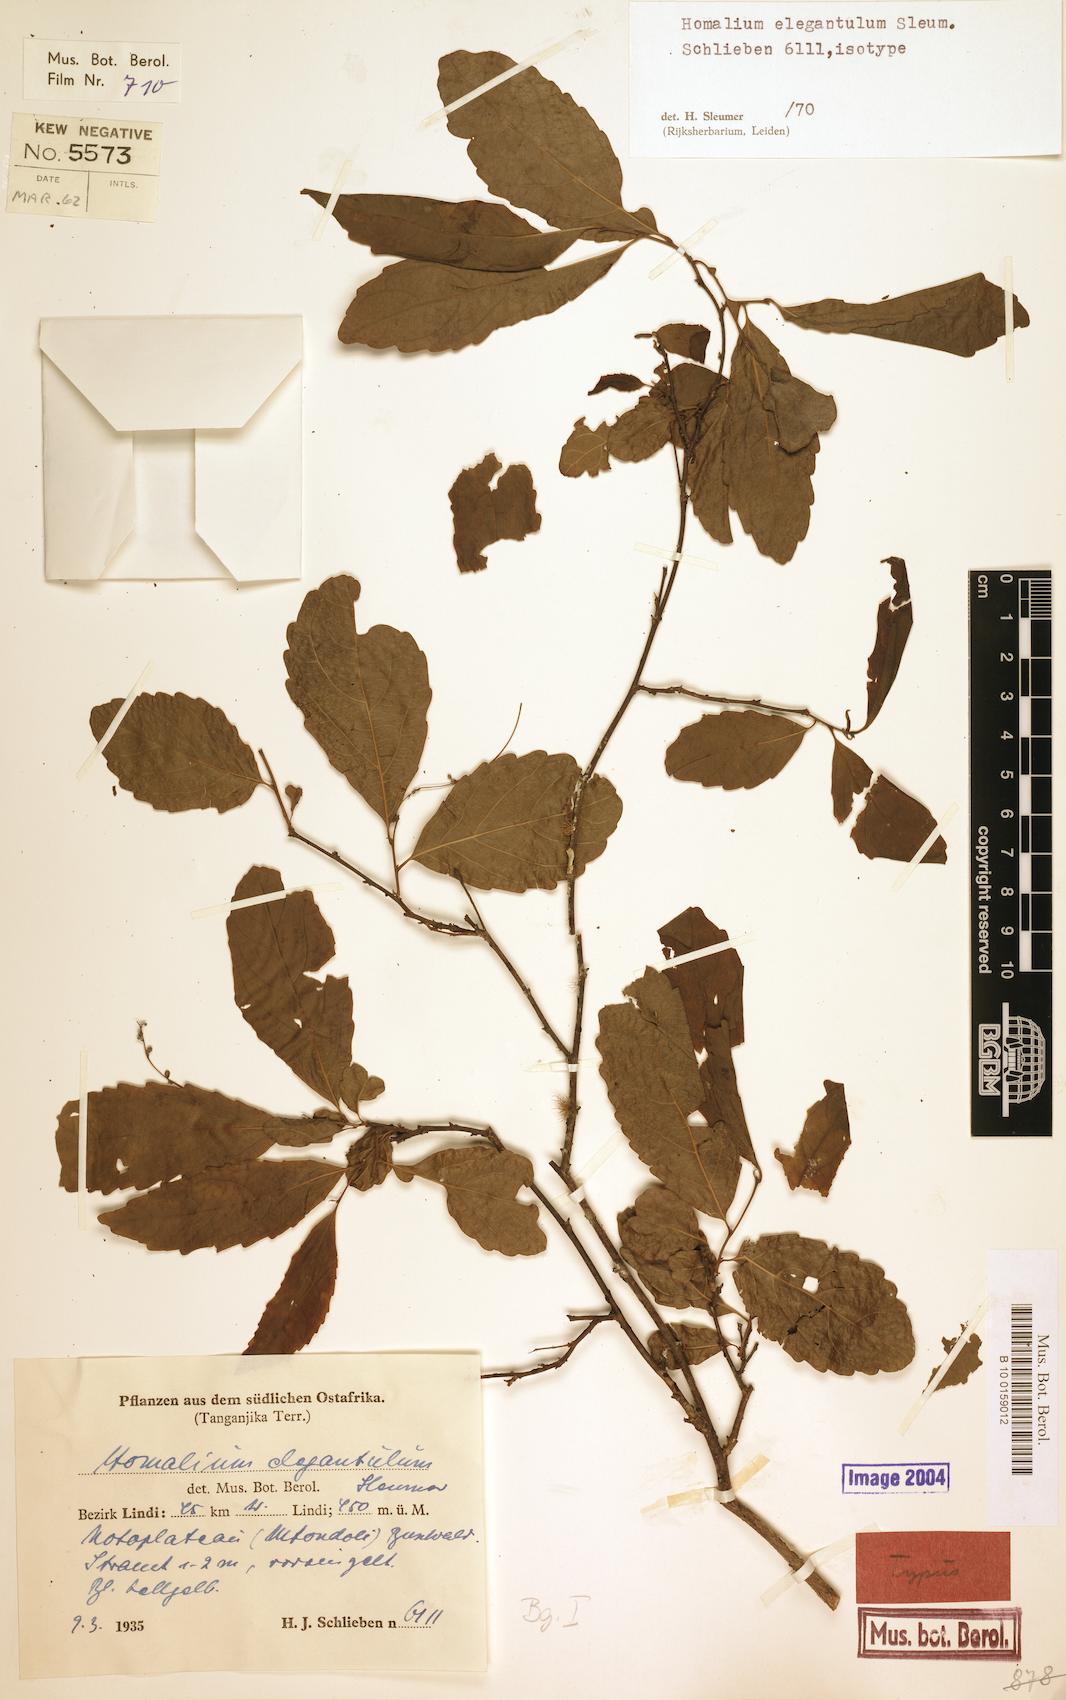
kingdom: Plantae
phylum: Tracheophyta
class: Magnoliopsida
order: Malpighiales
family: Salicaceae
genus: Homalium
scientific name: Homalium elegantulum
